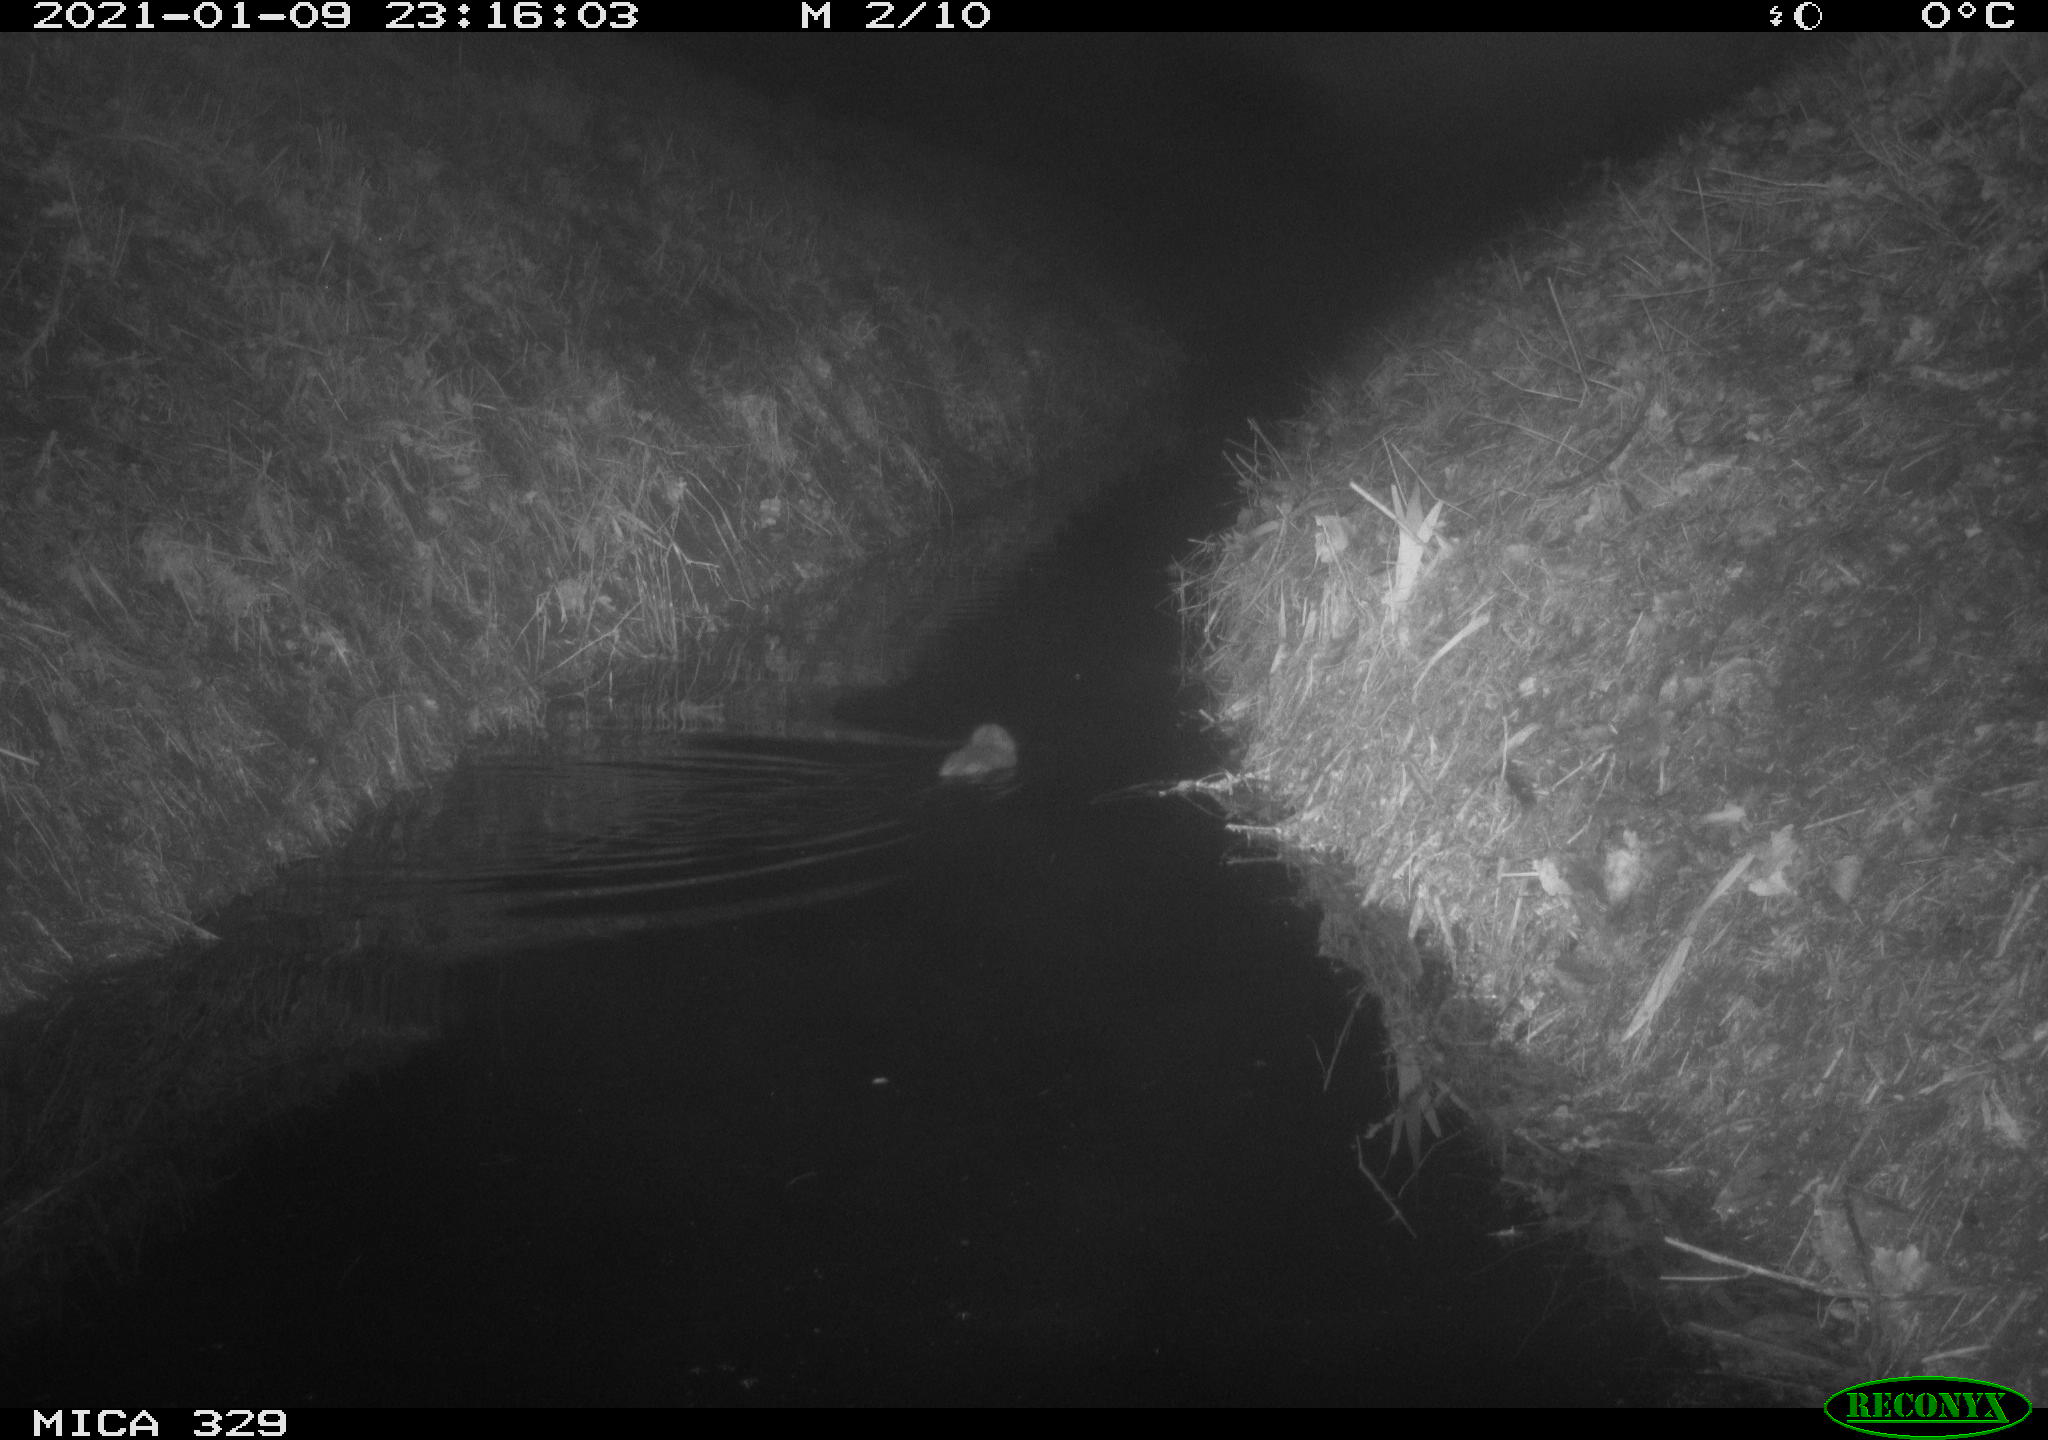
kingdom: Animalia
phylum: Chordata
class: Mammalia
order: Rodentia
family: Cricetidae
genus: Ondatra
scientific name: Ondatra zibethicus
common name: Muskrat
